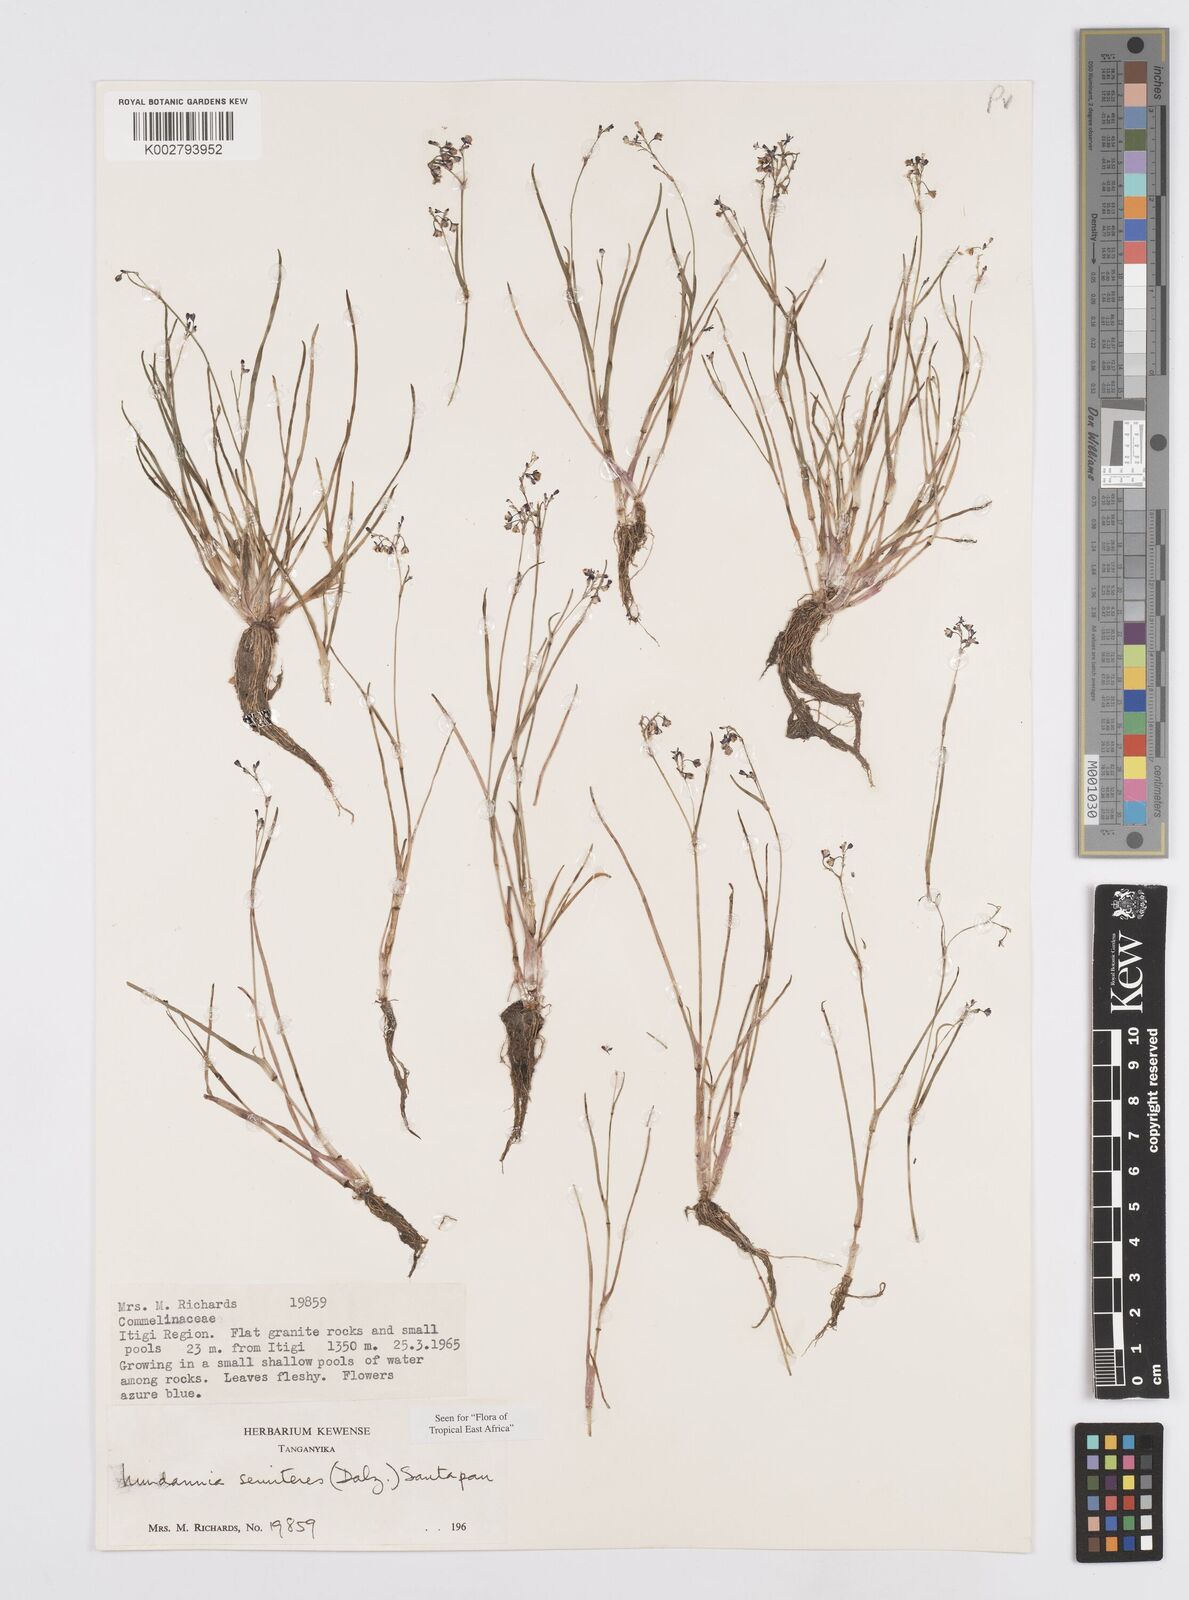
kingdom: Plantae
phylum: Tracheophyta
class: Liliopsida
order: Commelinales
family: Commelinaceae
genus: Murdannia
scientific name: Murdannia semiteres
